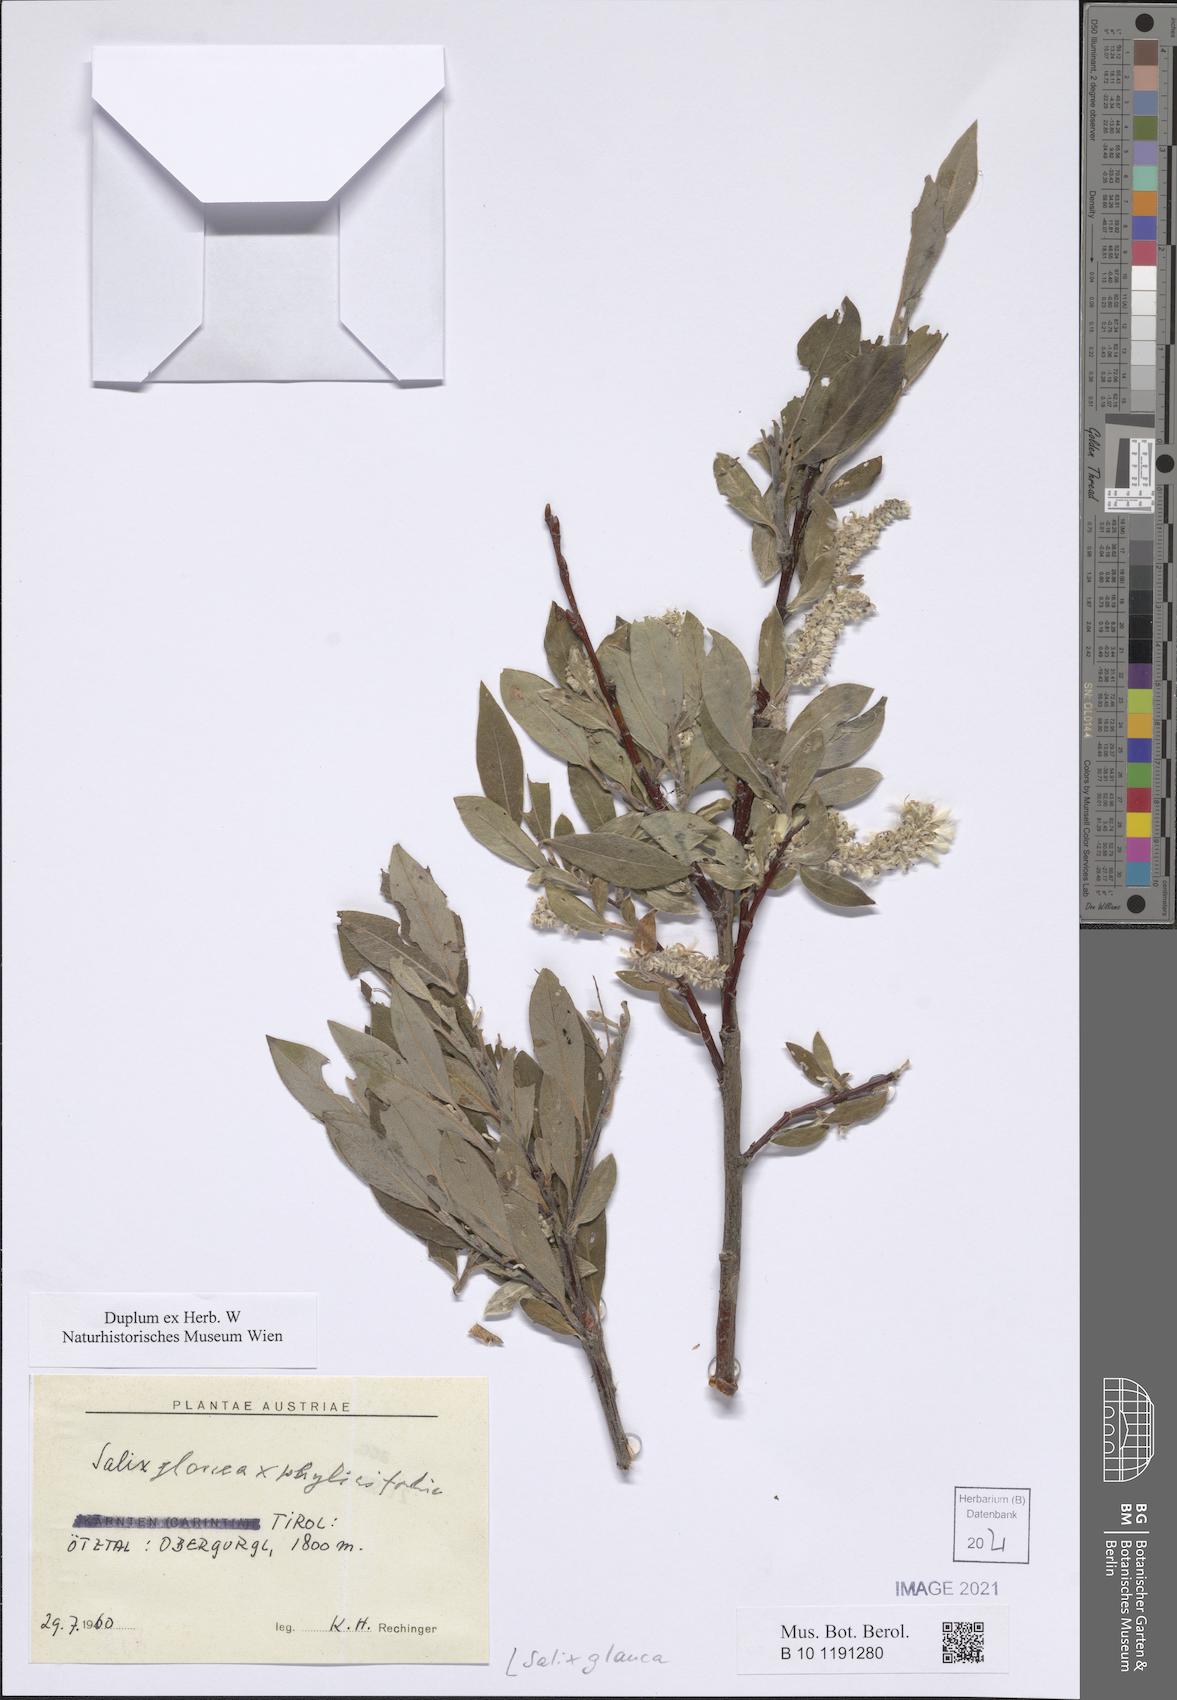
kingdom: Plantae
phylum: Tracheophyta
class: Magnoliopsida
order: Malpighiales
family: Salicaceae
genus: Salix
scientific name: Salix glauca
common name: Glaucous willow
